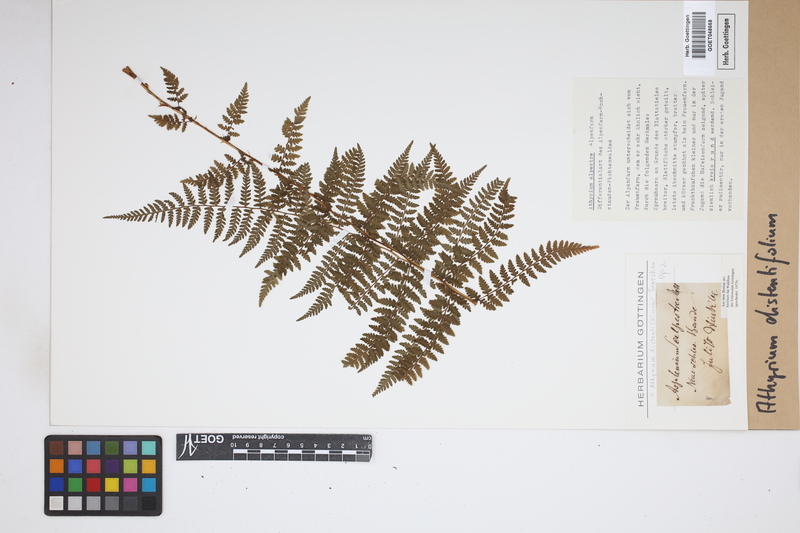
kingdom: Plantae
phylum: Tracheophyta
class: Polypodiopsida
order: Polypodiales
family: Athyriaceae
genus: Pseudathyrium
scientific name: Pseudathyrium alpestre
